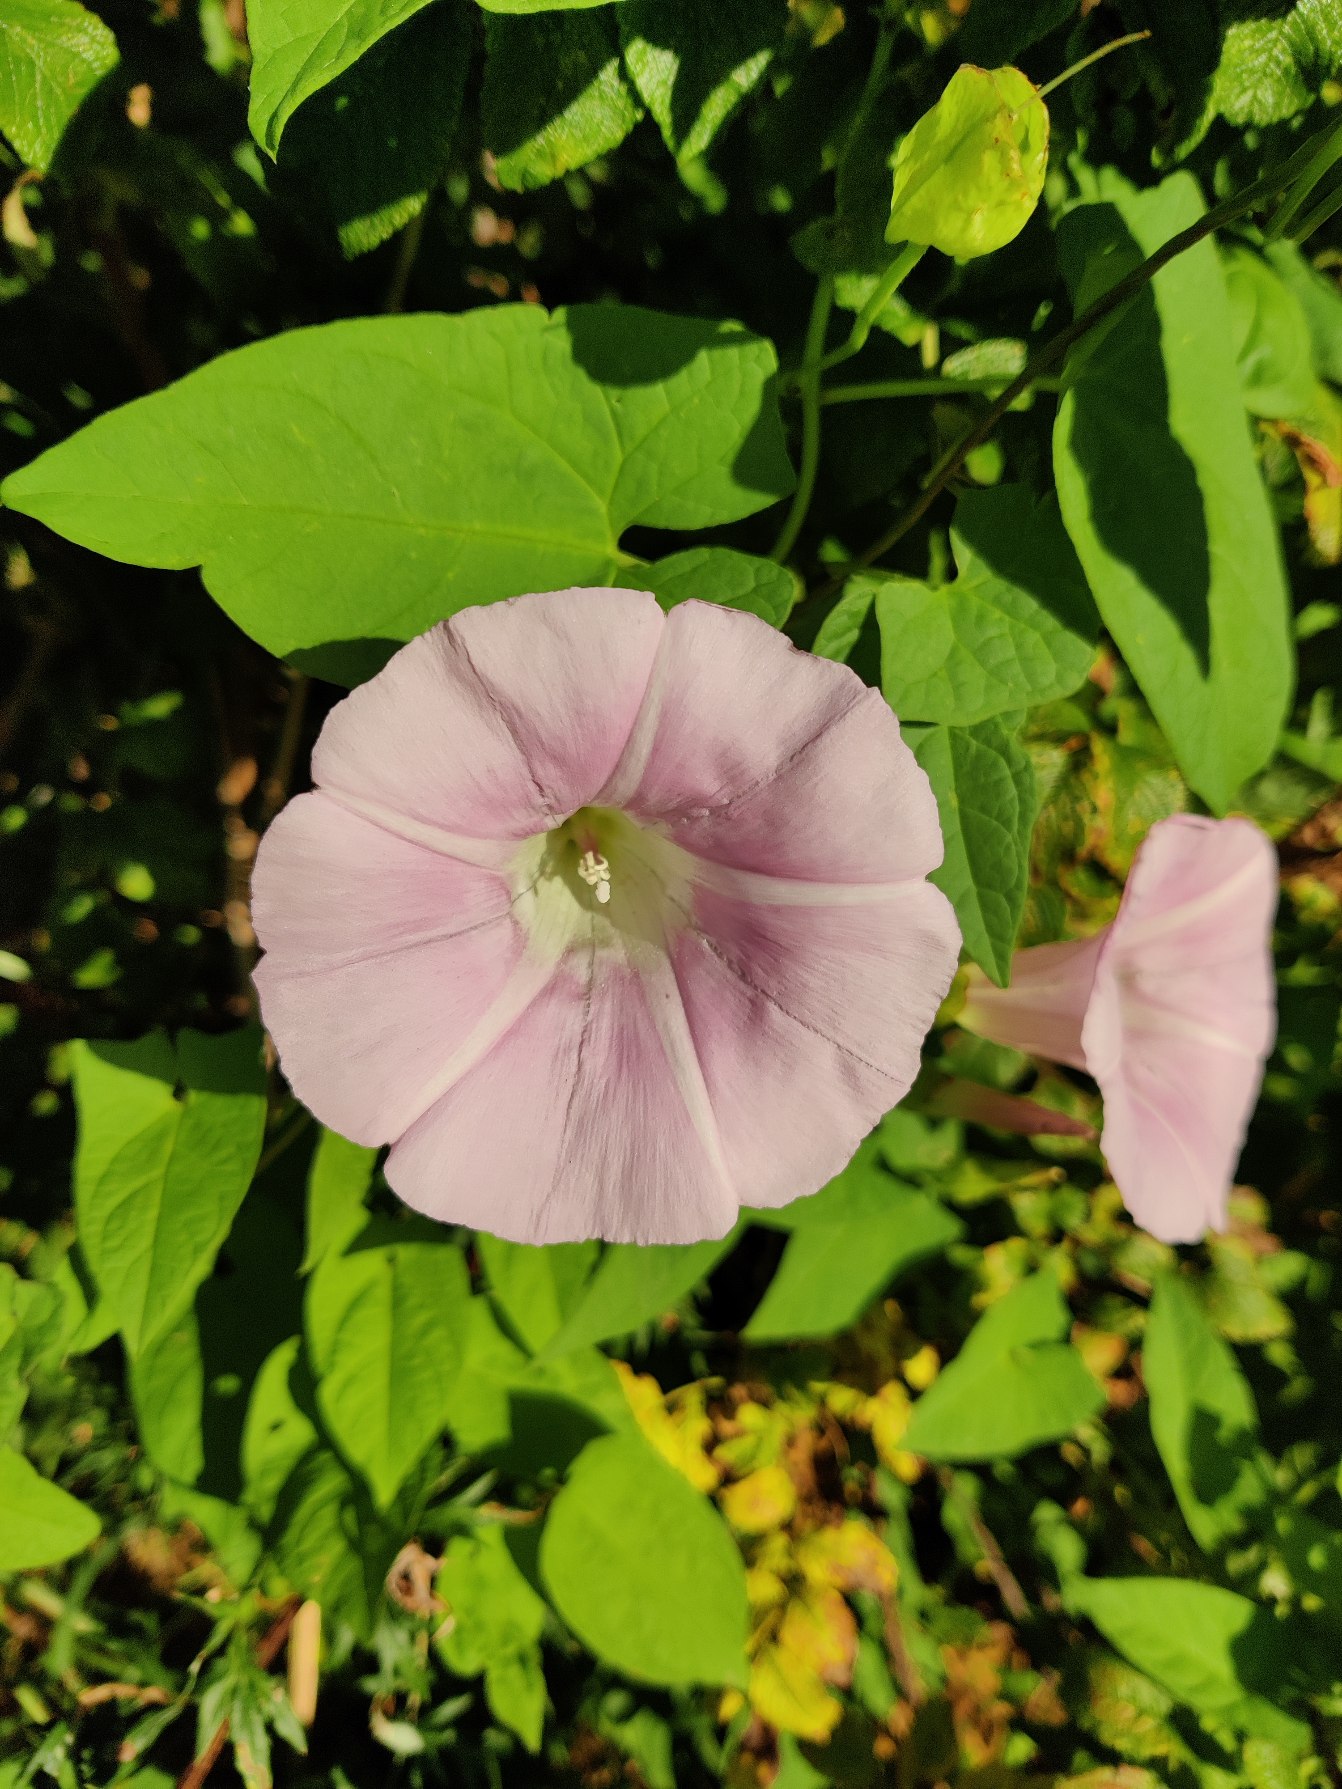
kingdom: Plantae
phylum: Tracheophyta
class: Magnoliopsida
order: Solanales
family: Convolvulaceae
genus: Calystegia
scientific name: Calystegia pulchra
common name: Have-snerle
